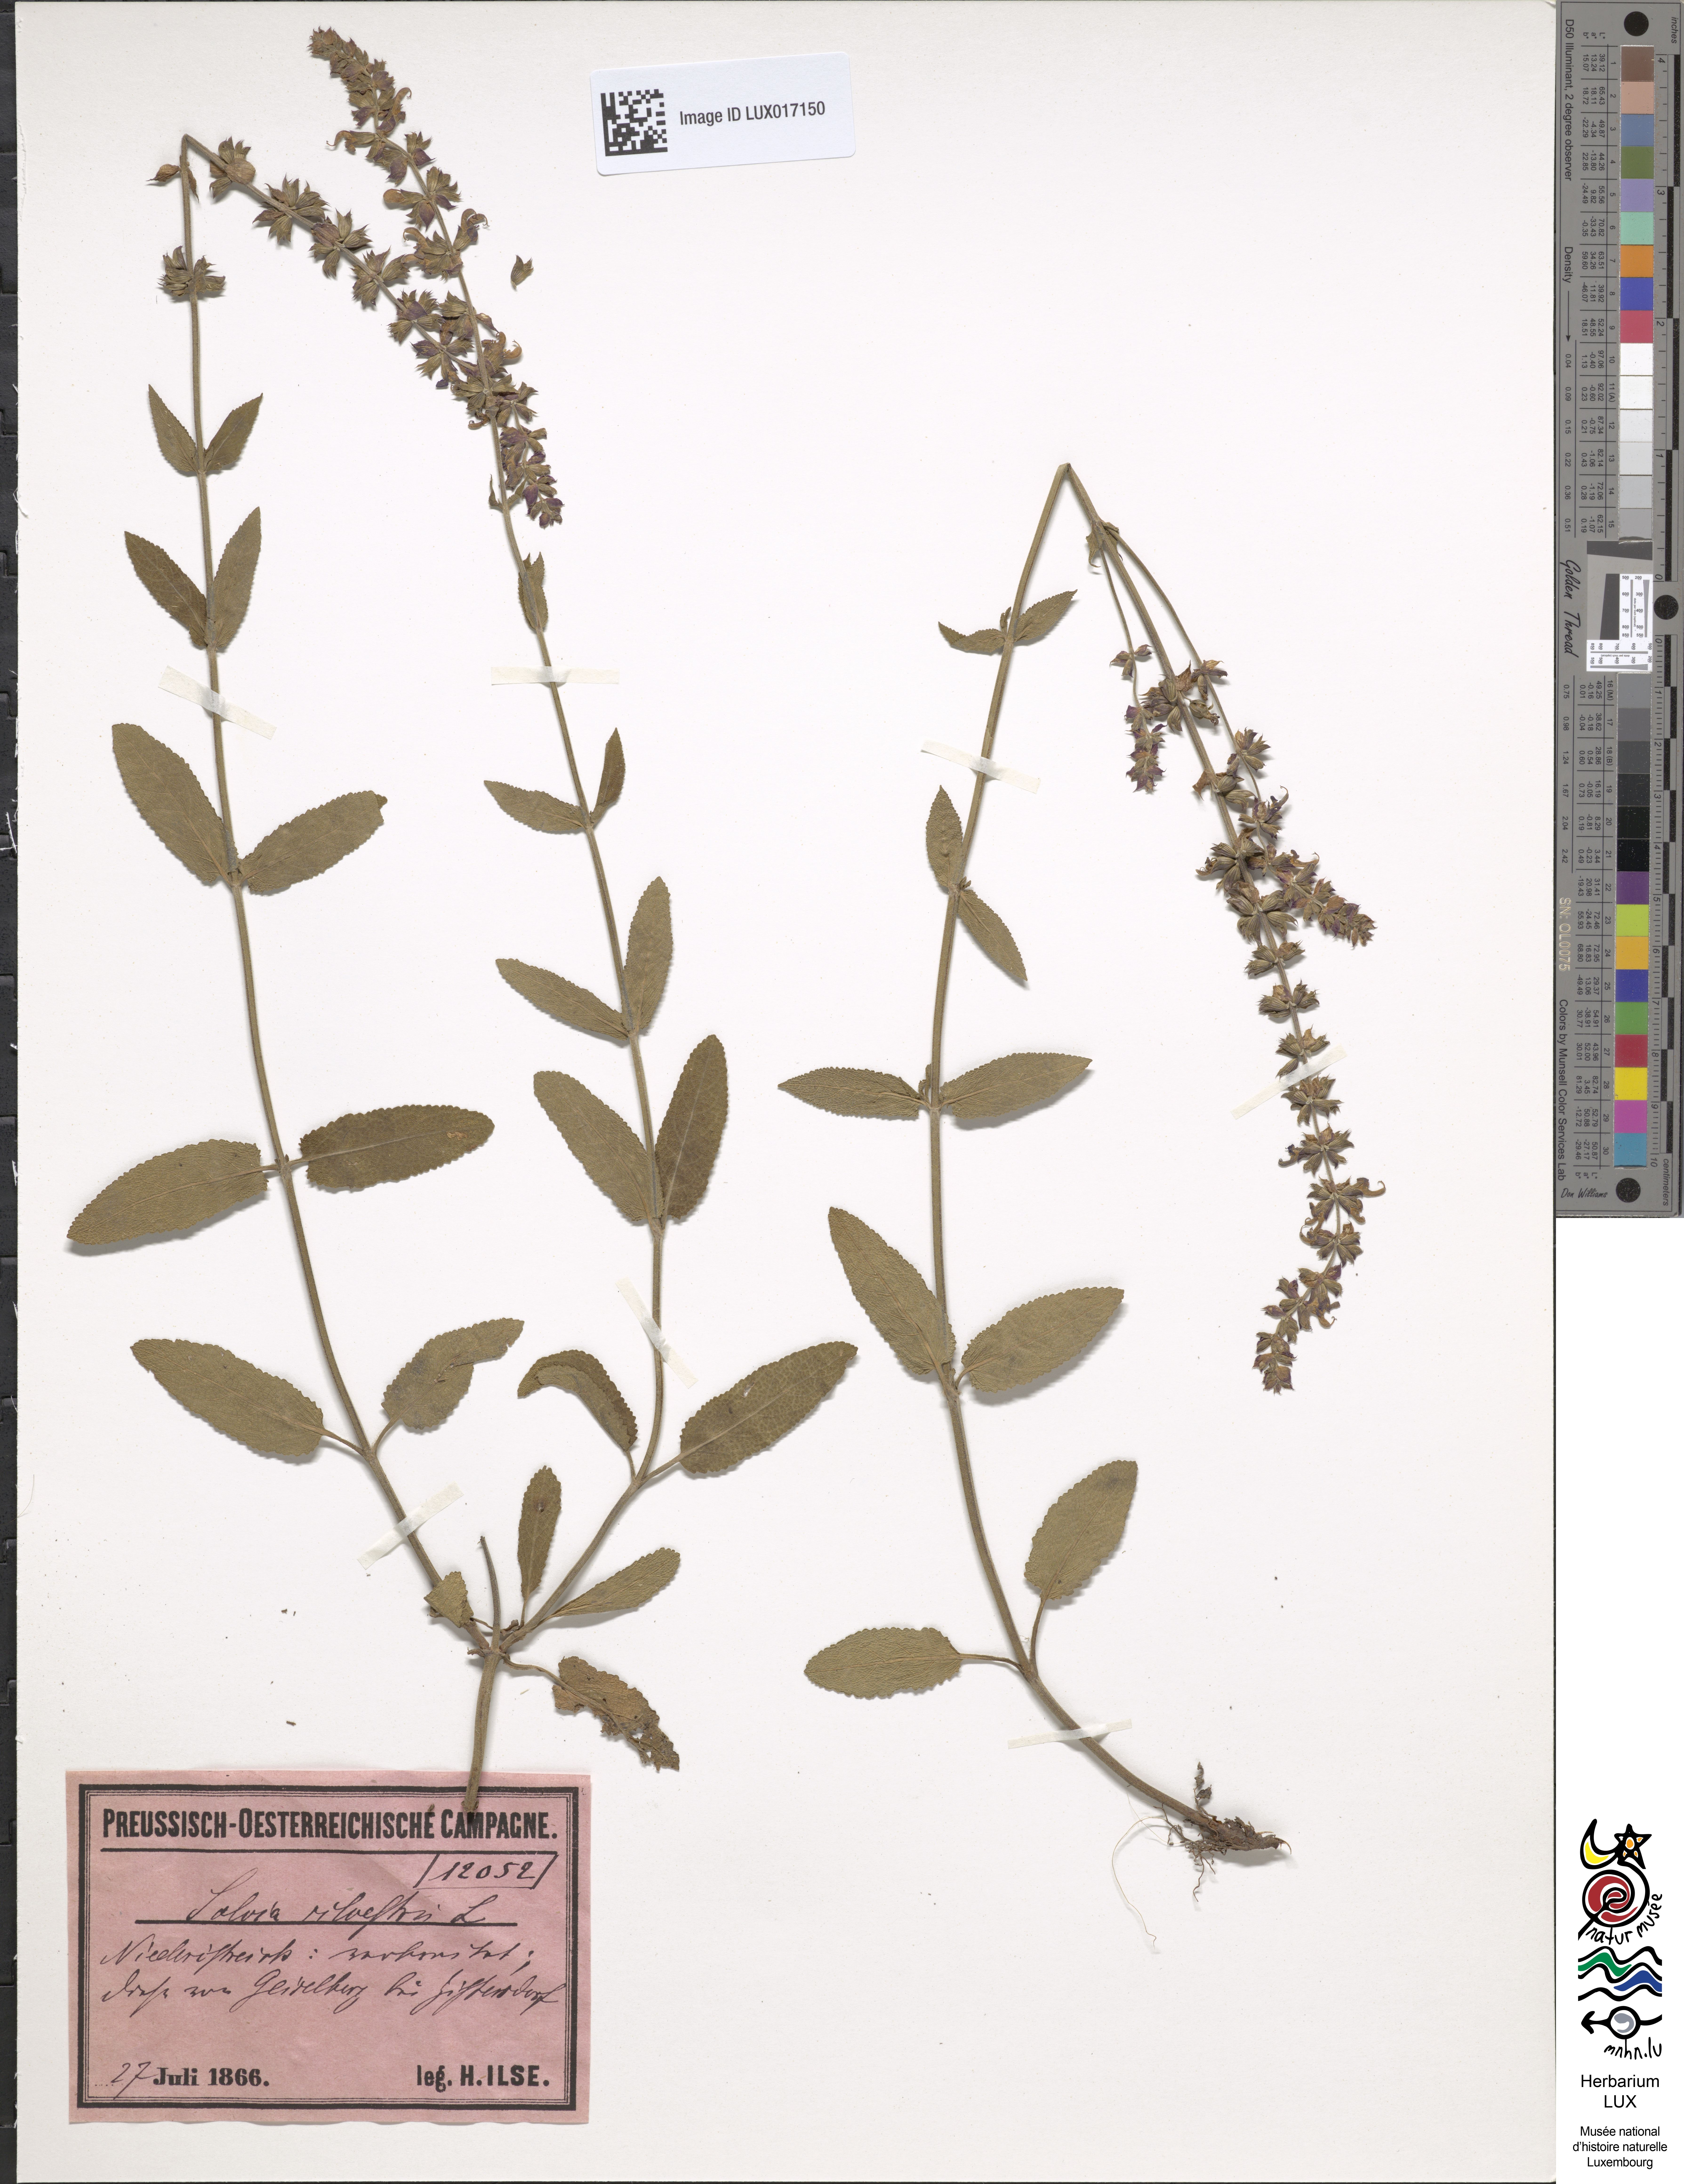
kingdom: Plantae
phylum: Tracheophyta
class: Magnoliopsida
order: Lamiales
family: Lamiaceae
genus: Salvia
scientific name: Salvia nemorosa
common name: Balkan clary
